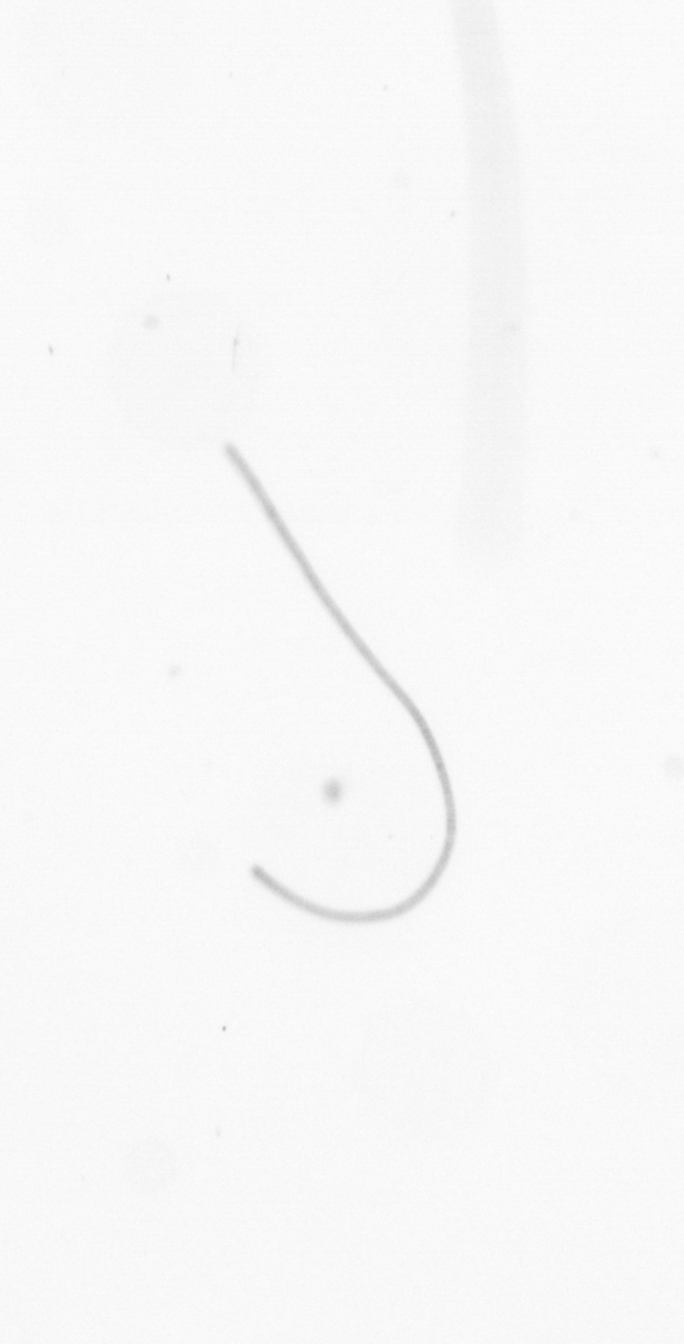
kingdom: Chromista
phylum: Ochrophyta
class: Bacillariophyceae
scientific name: Bacillariophyceae
